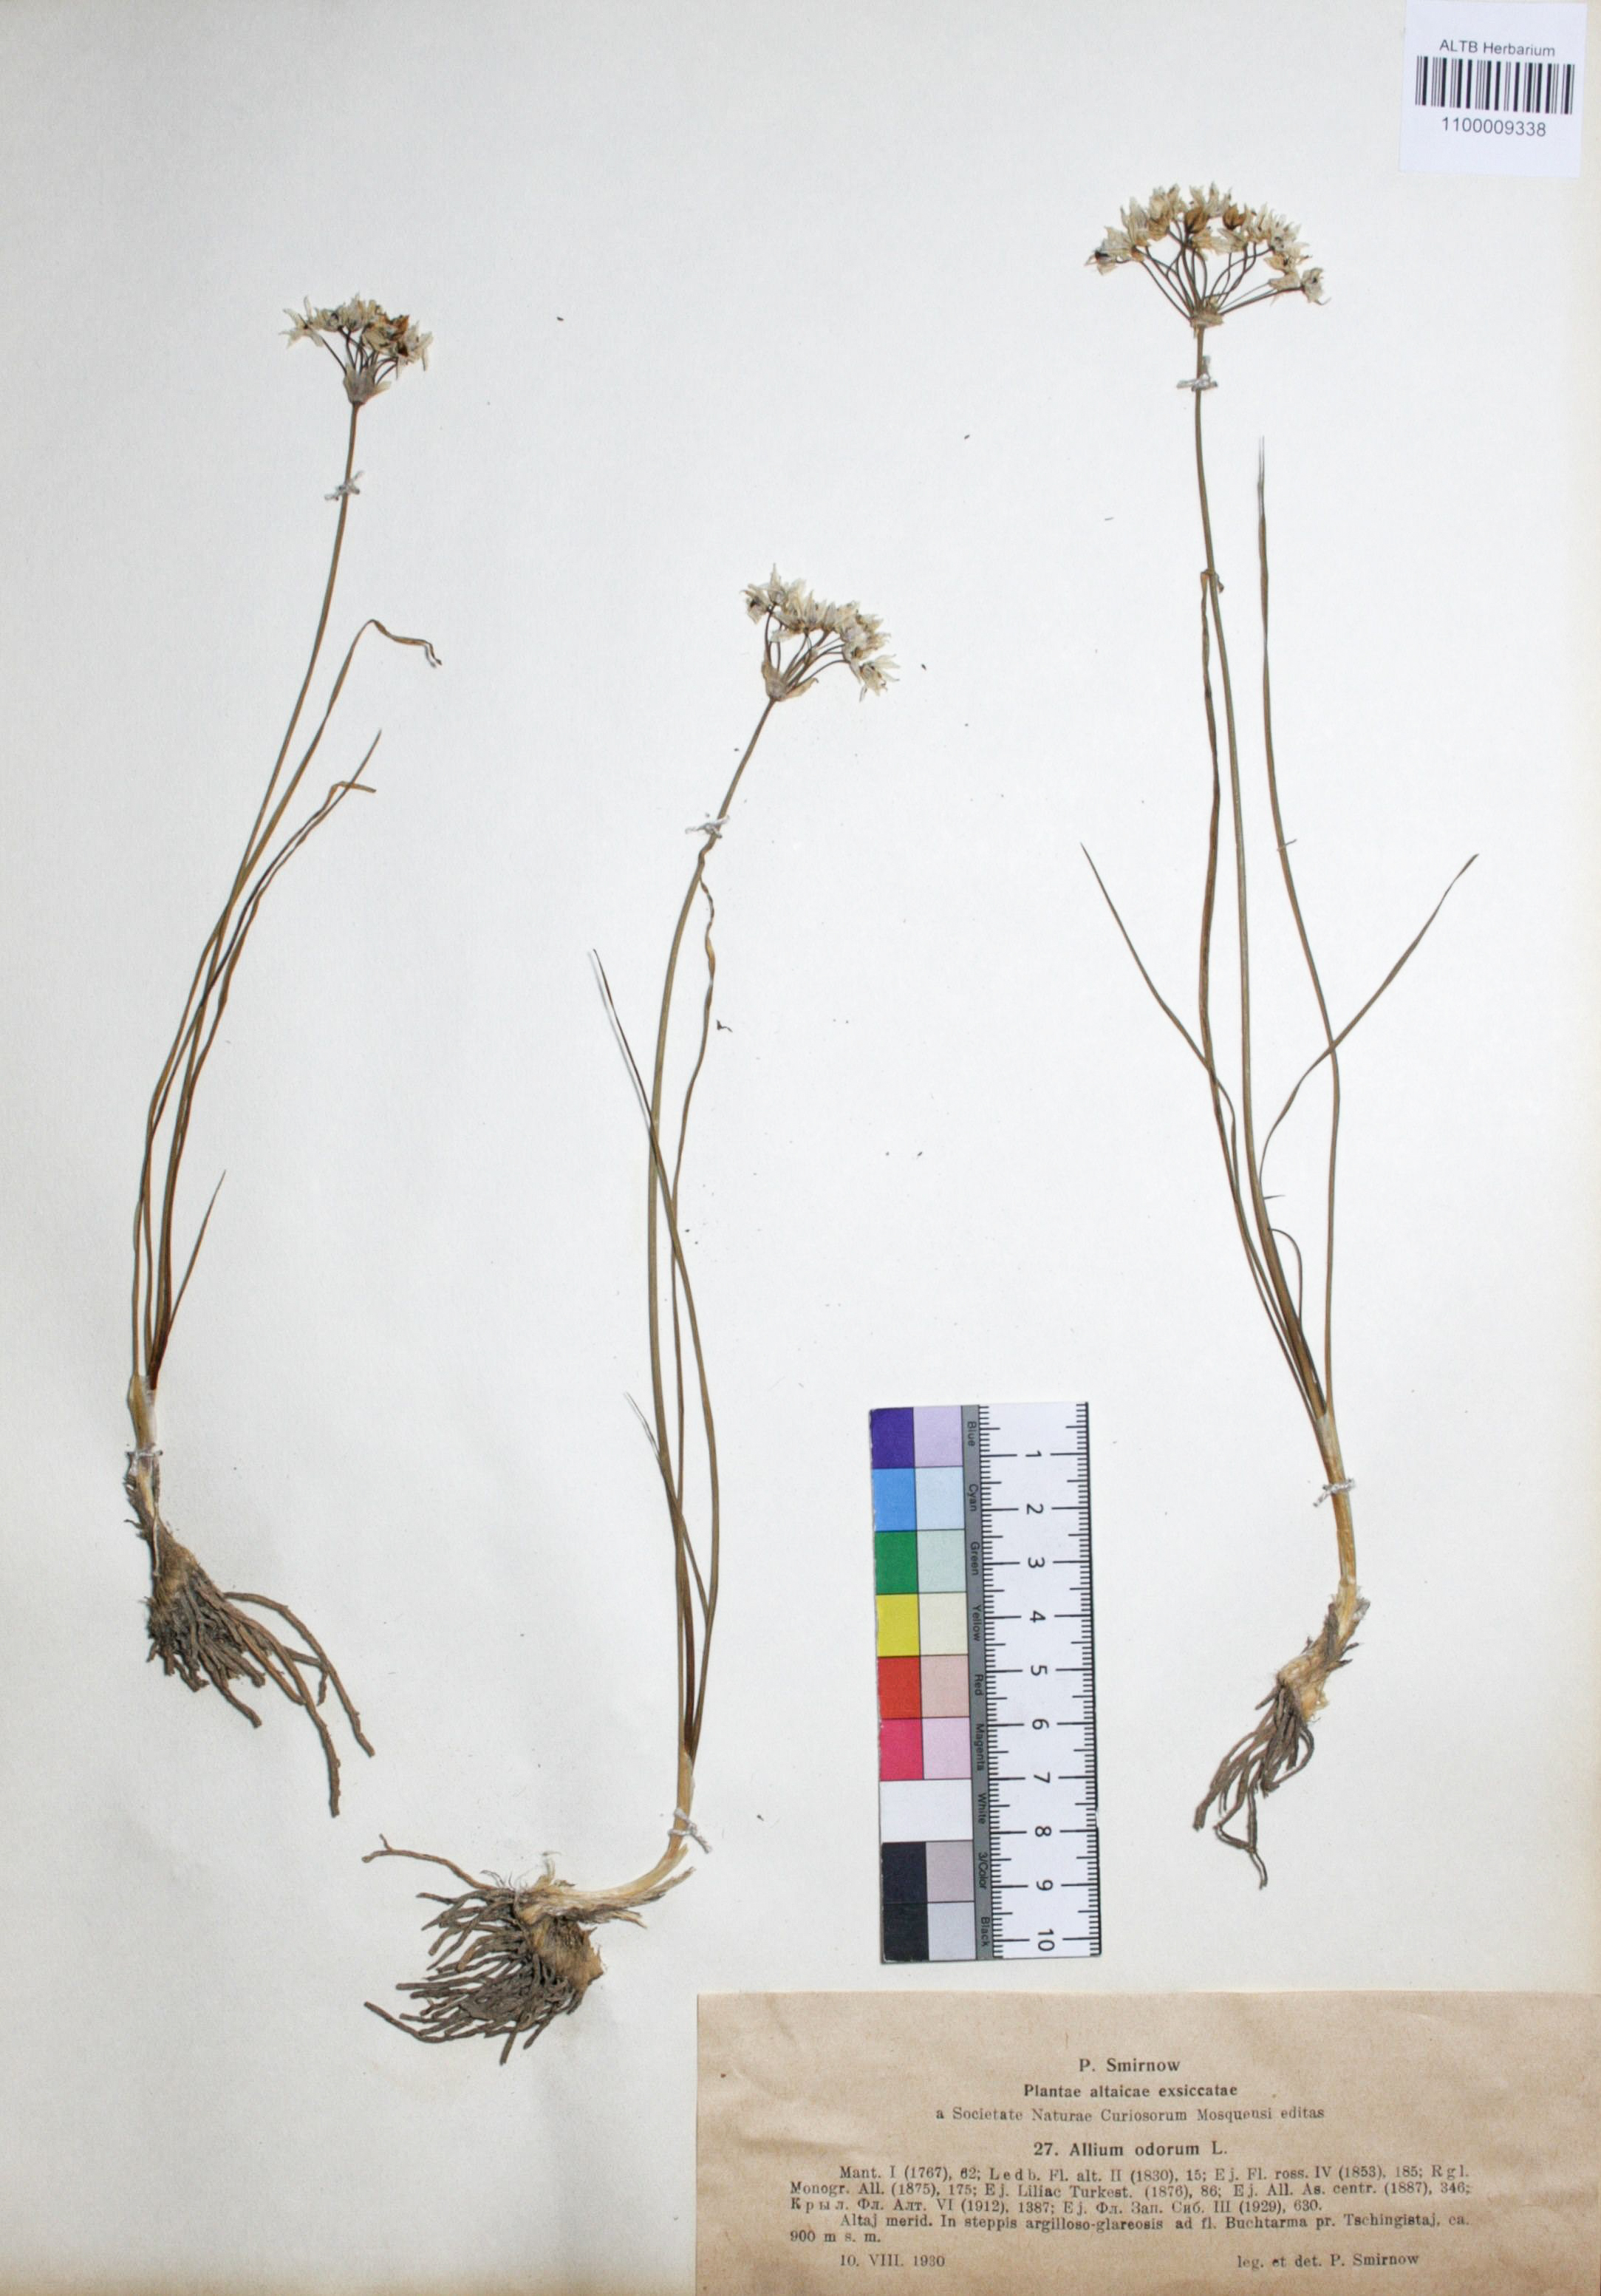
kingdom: Plantae
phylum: Tracheophyta
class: Liliopsida
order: Asparagales
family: Amaryllidaceae
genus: Allium
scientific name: Allium ramosum
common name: Fragrant garlic
